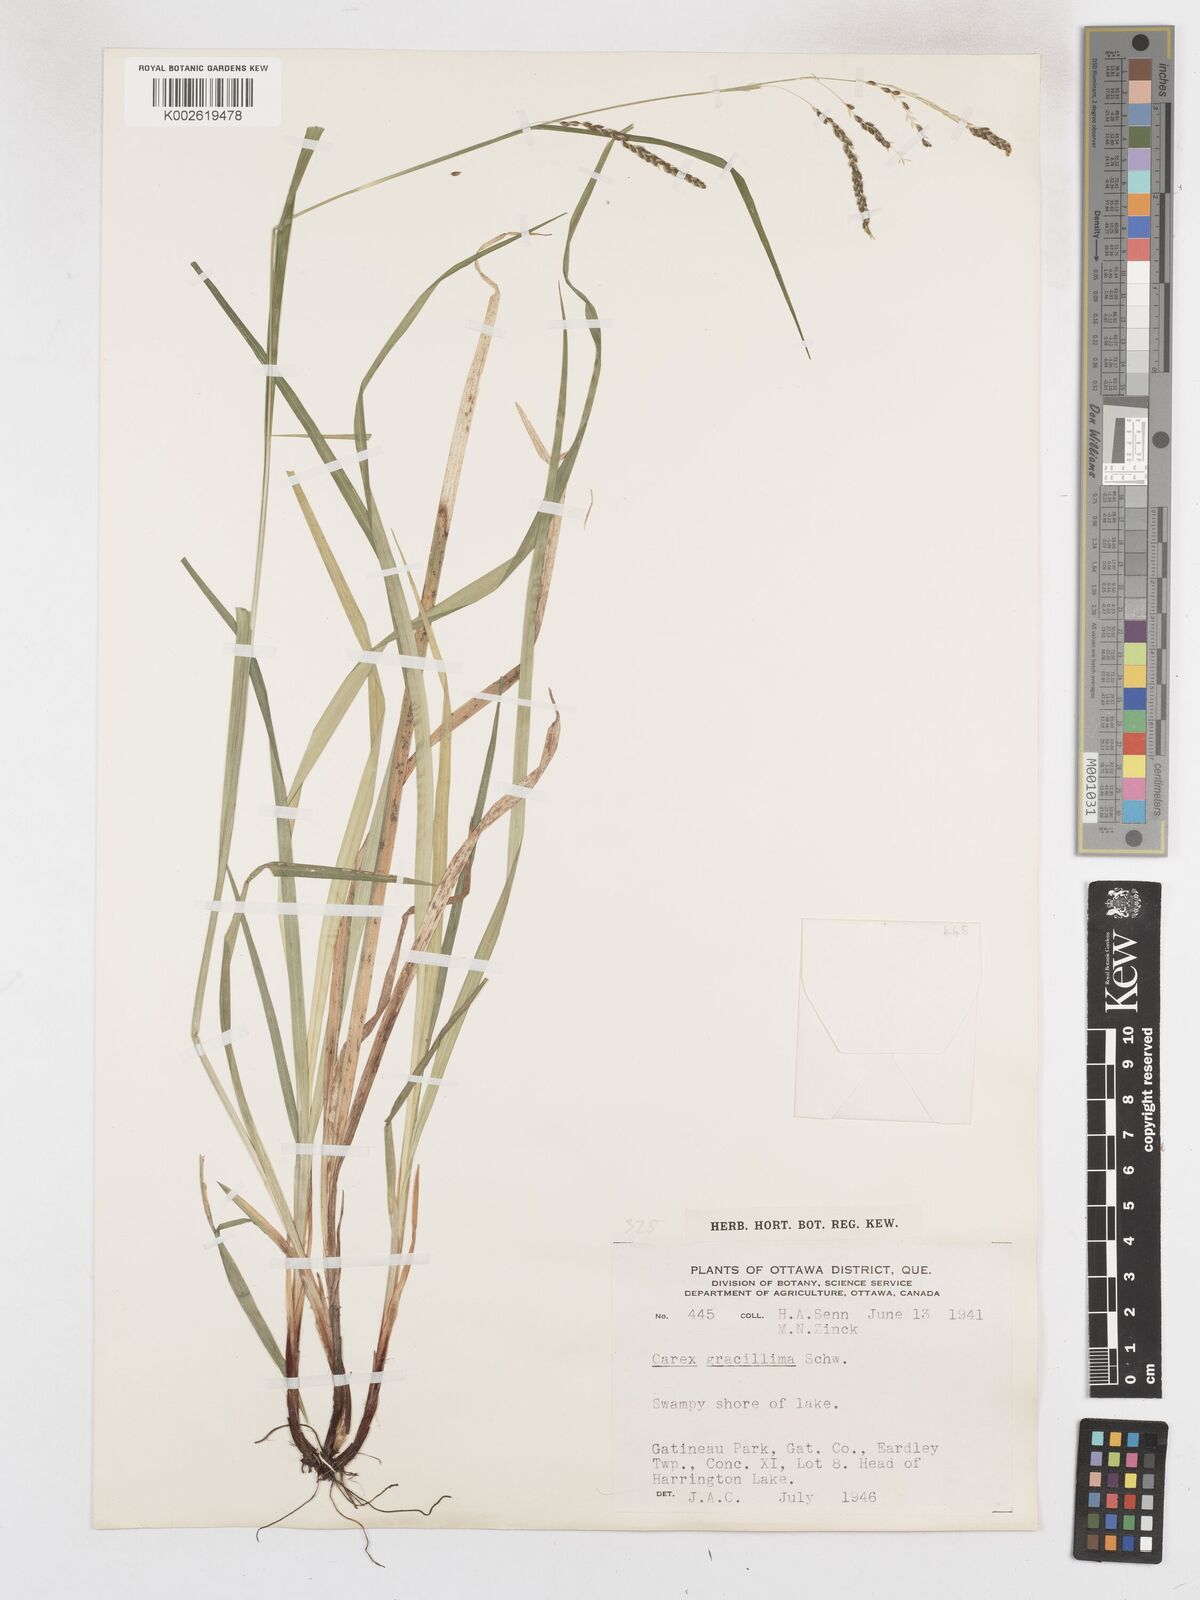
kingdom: Plantae
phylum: Tracheophyta
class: Liliopsida
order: Poales
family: Cyperaceae
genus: Carex
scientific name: Carex gracillima
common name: Graceful sedge
